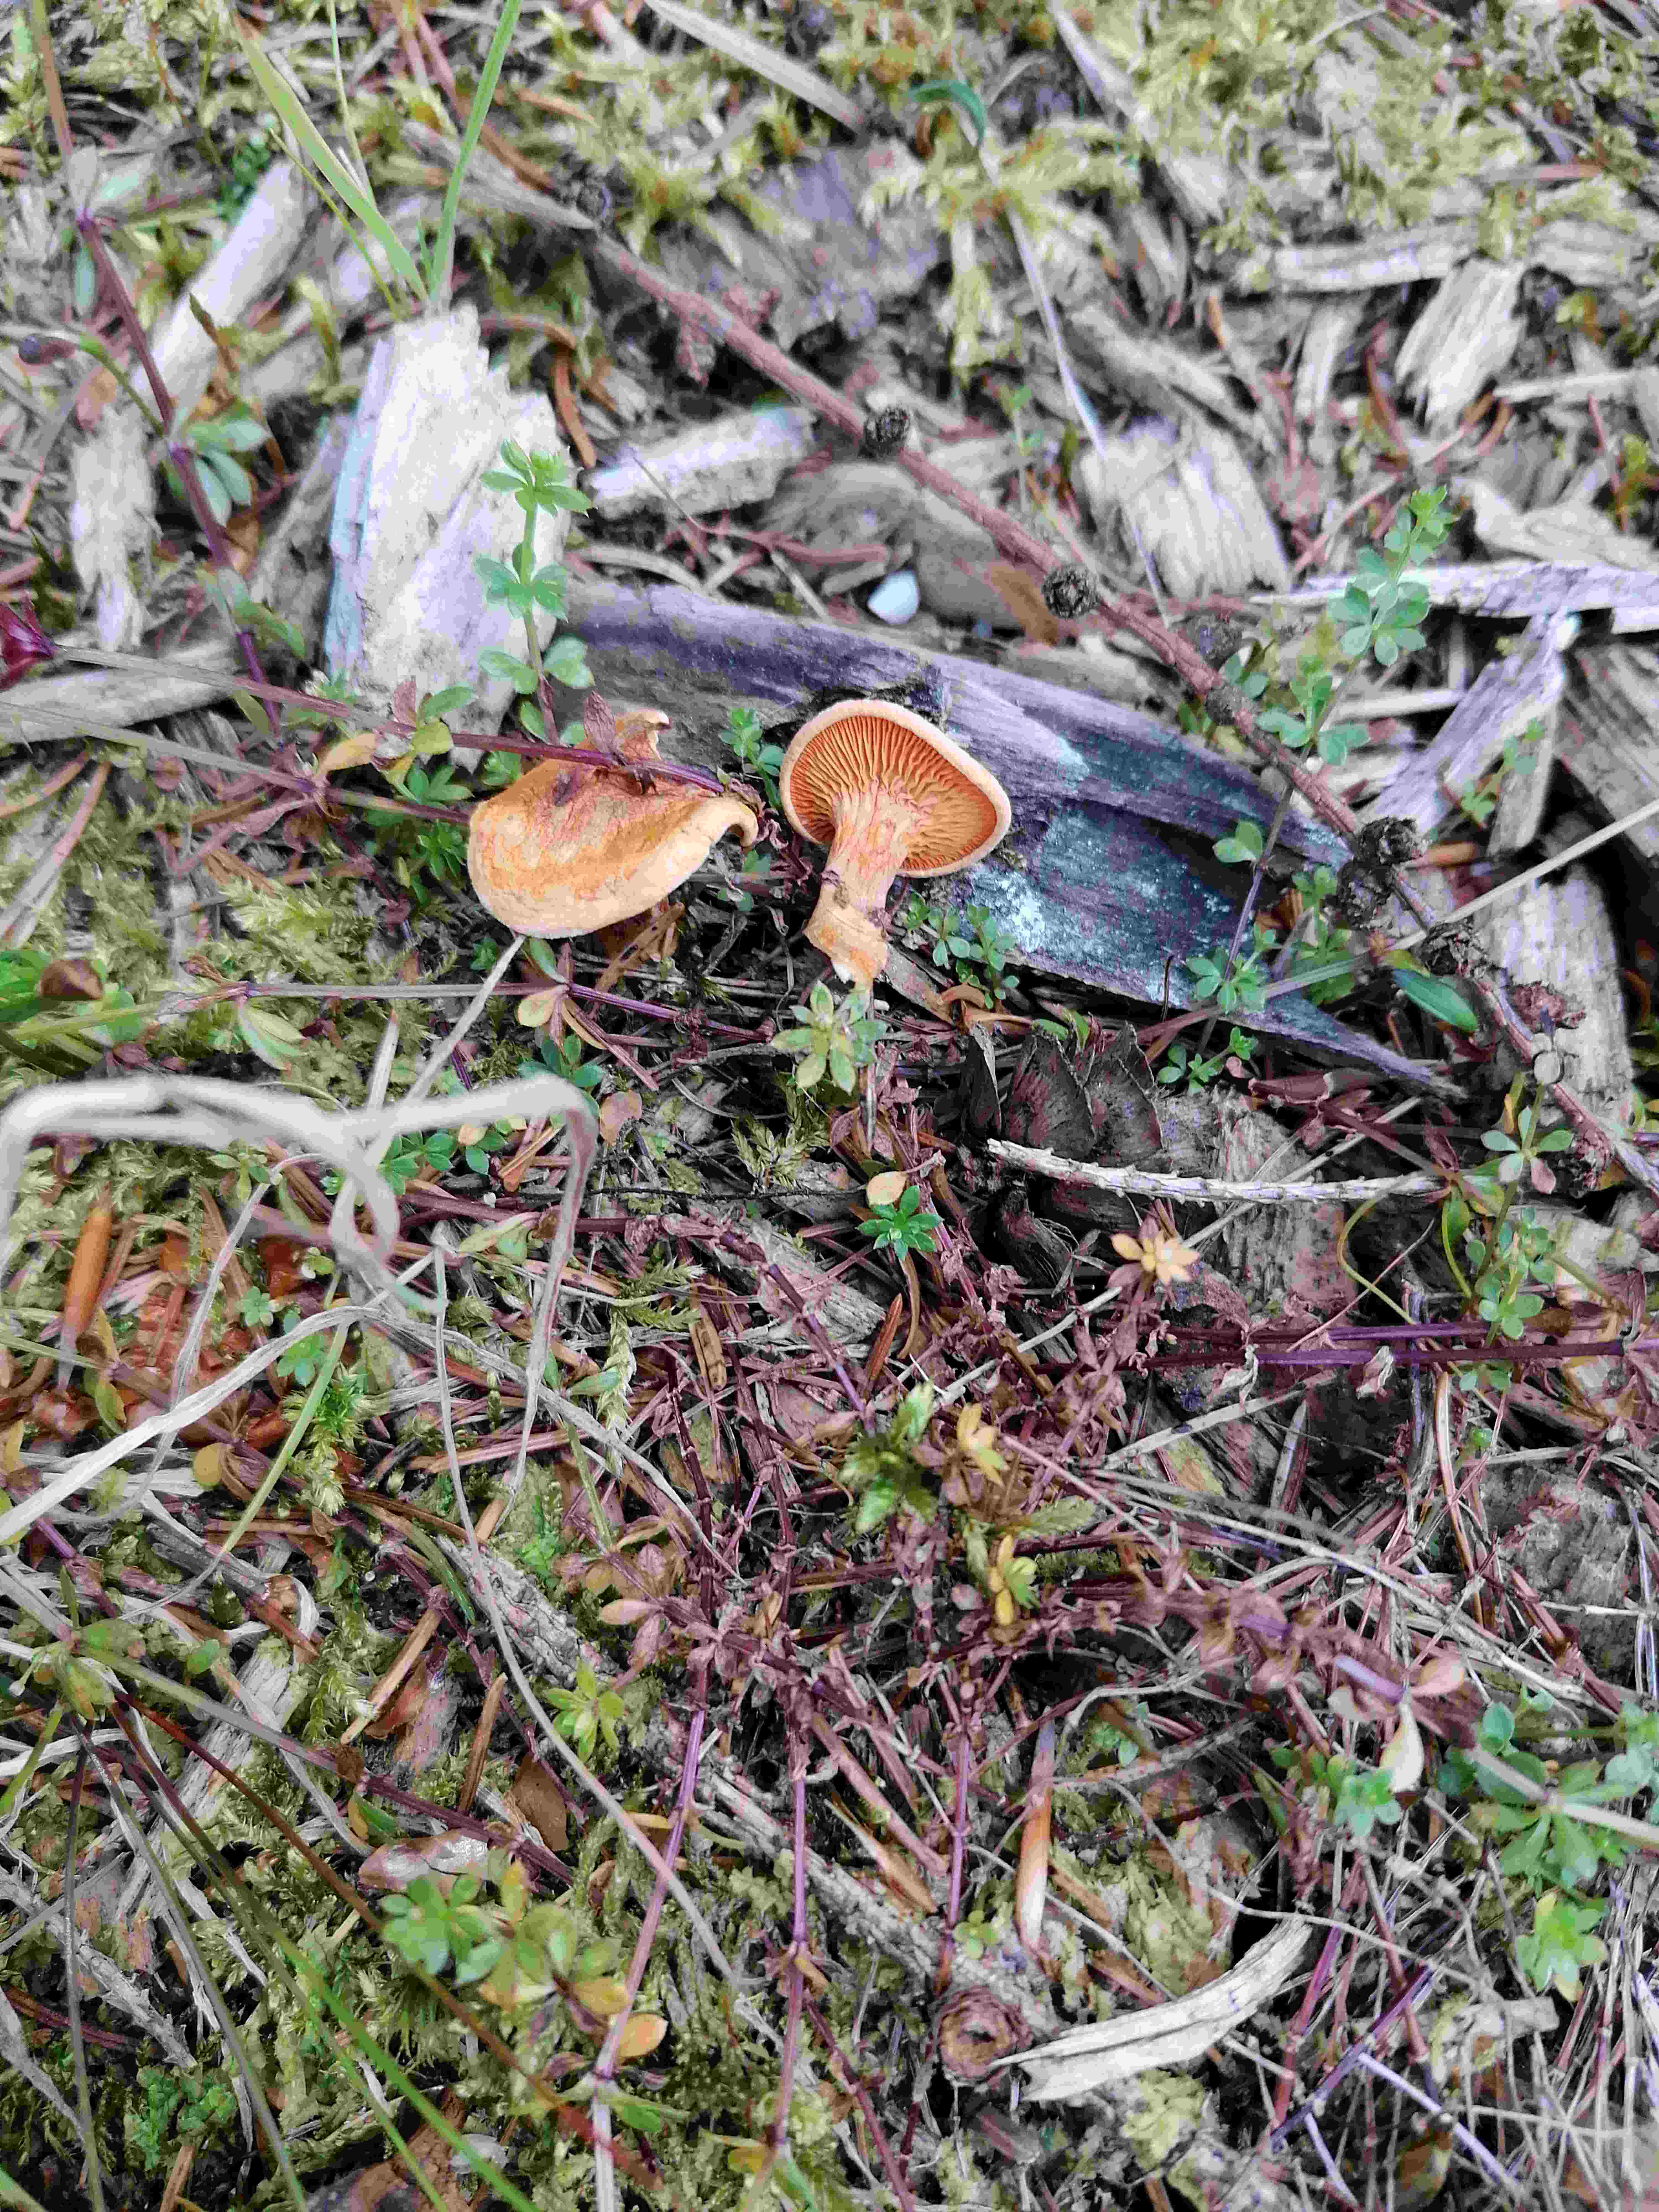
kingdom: Fungi
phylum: Basidiomycota
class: Agaricomycetes
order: Boletales
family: Hygrophoropsidaceae
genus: Hygrophoropsis
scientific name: Hygrophoropsis aurantiaca
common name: almindelig orangekantarel
